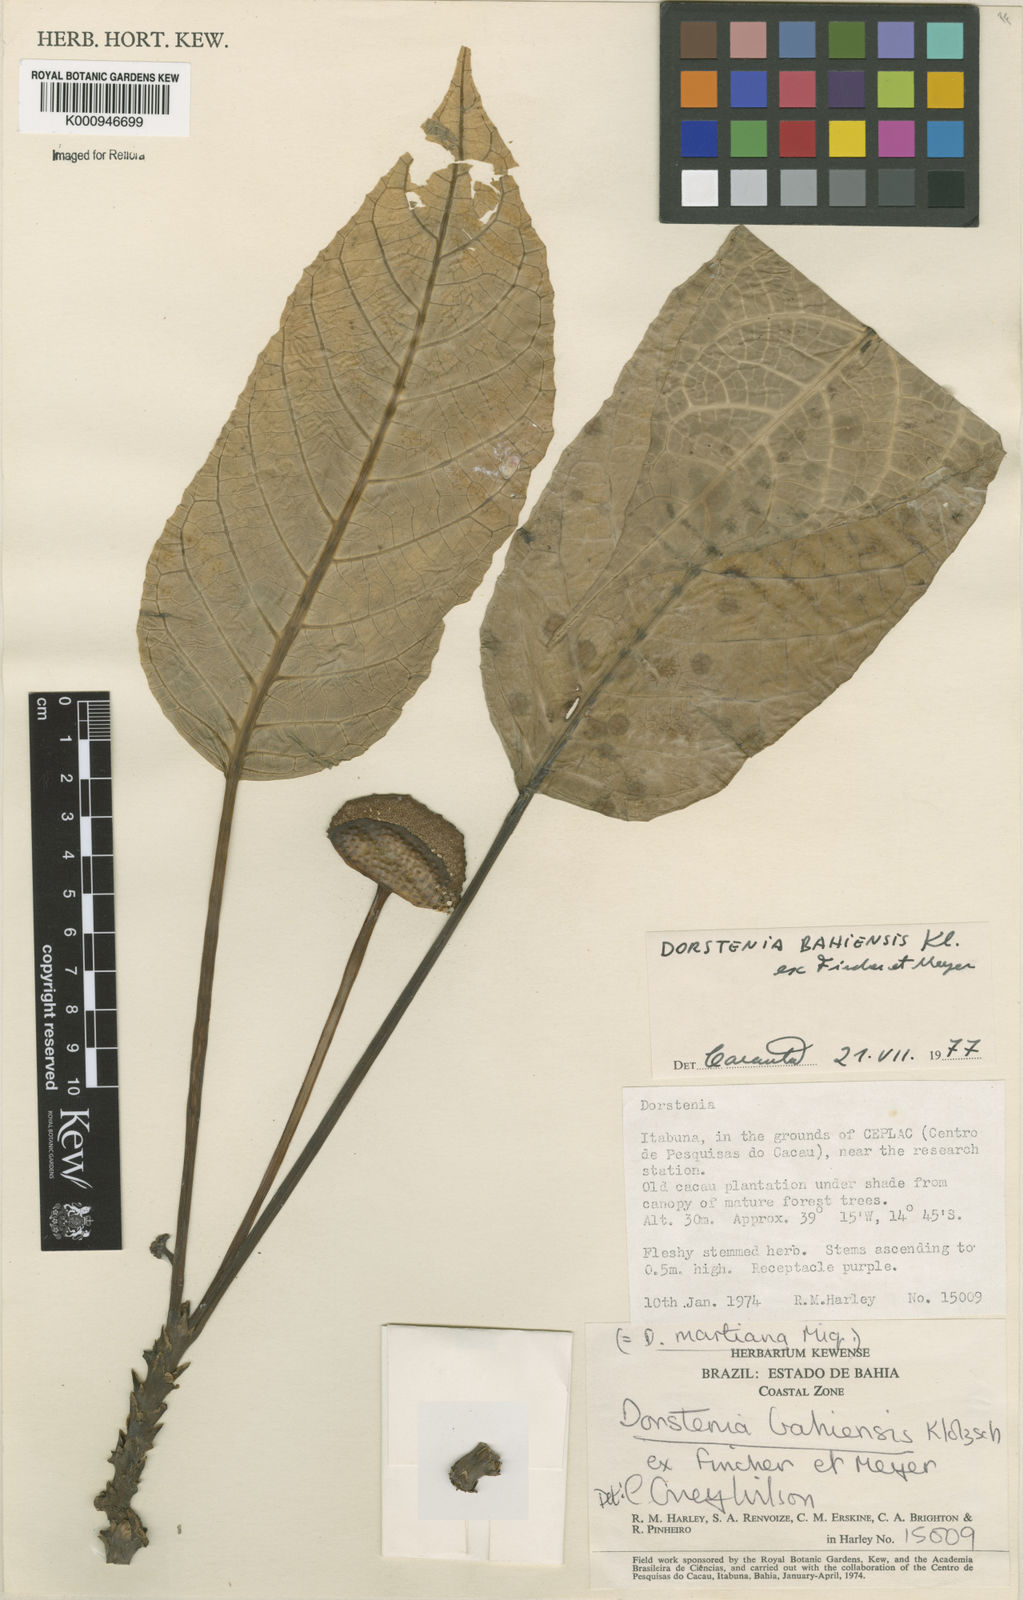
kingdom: Plantae
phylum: Tracheophyta
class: Magnoliopsida
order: Rosales
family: Moraceae
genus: Dorstenia
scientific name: Dorstenia bahiensis
